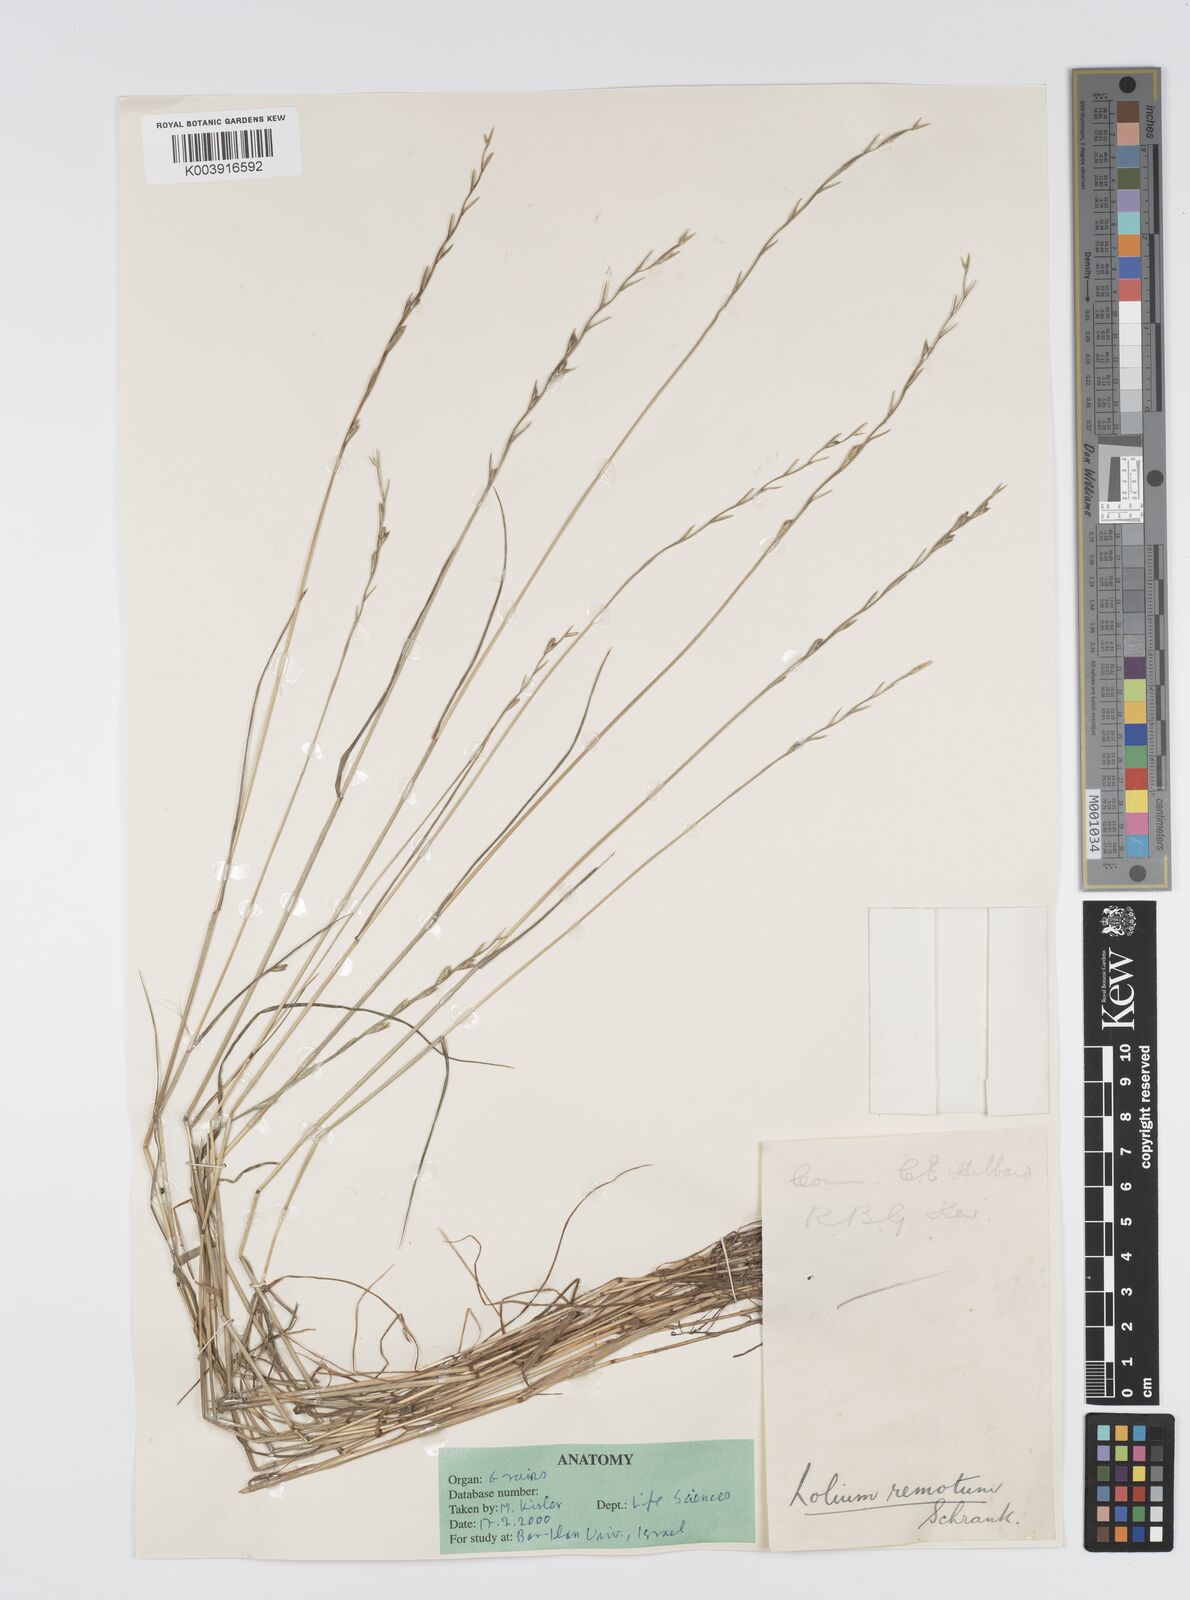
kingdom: Plantae
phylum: Tracheophyta
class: Liliopsida
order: Poales
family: Poaceae
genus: Lolium
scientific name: Lolium remotum
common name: Flaxfield rye-grass
